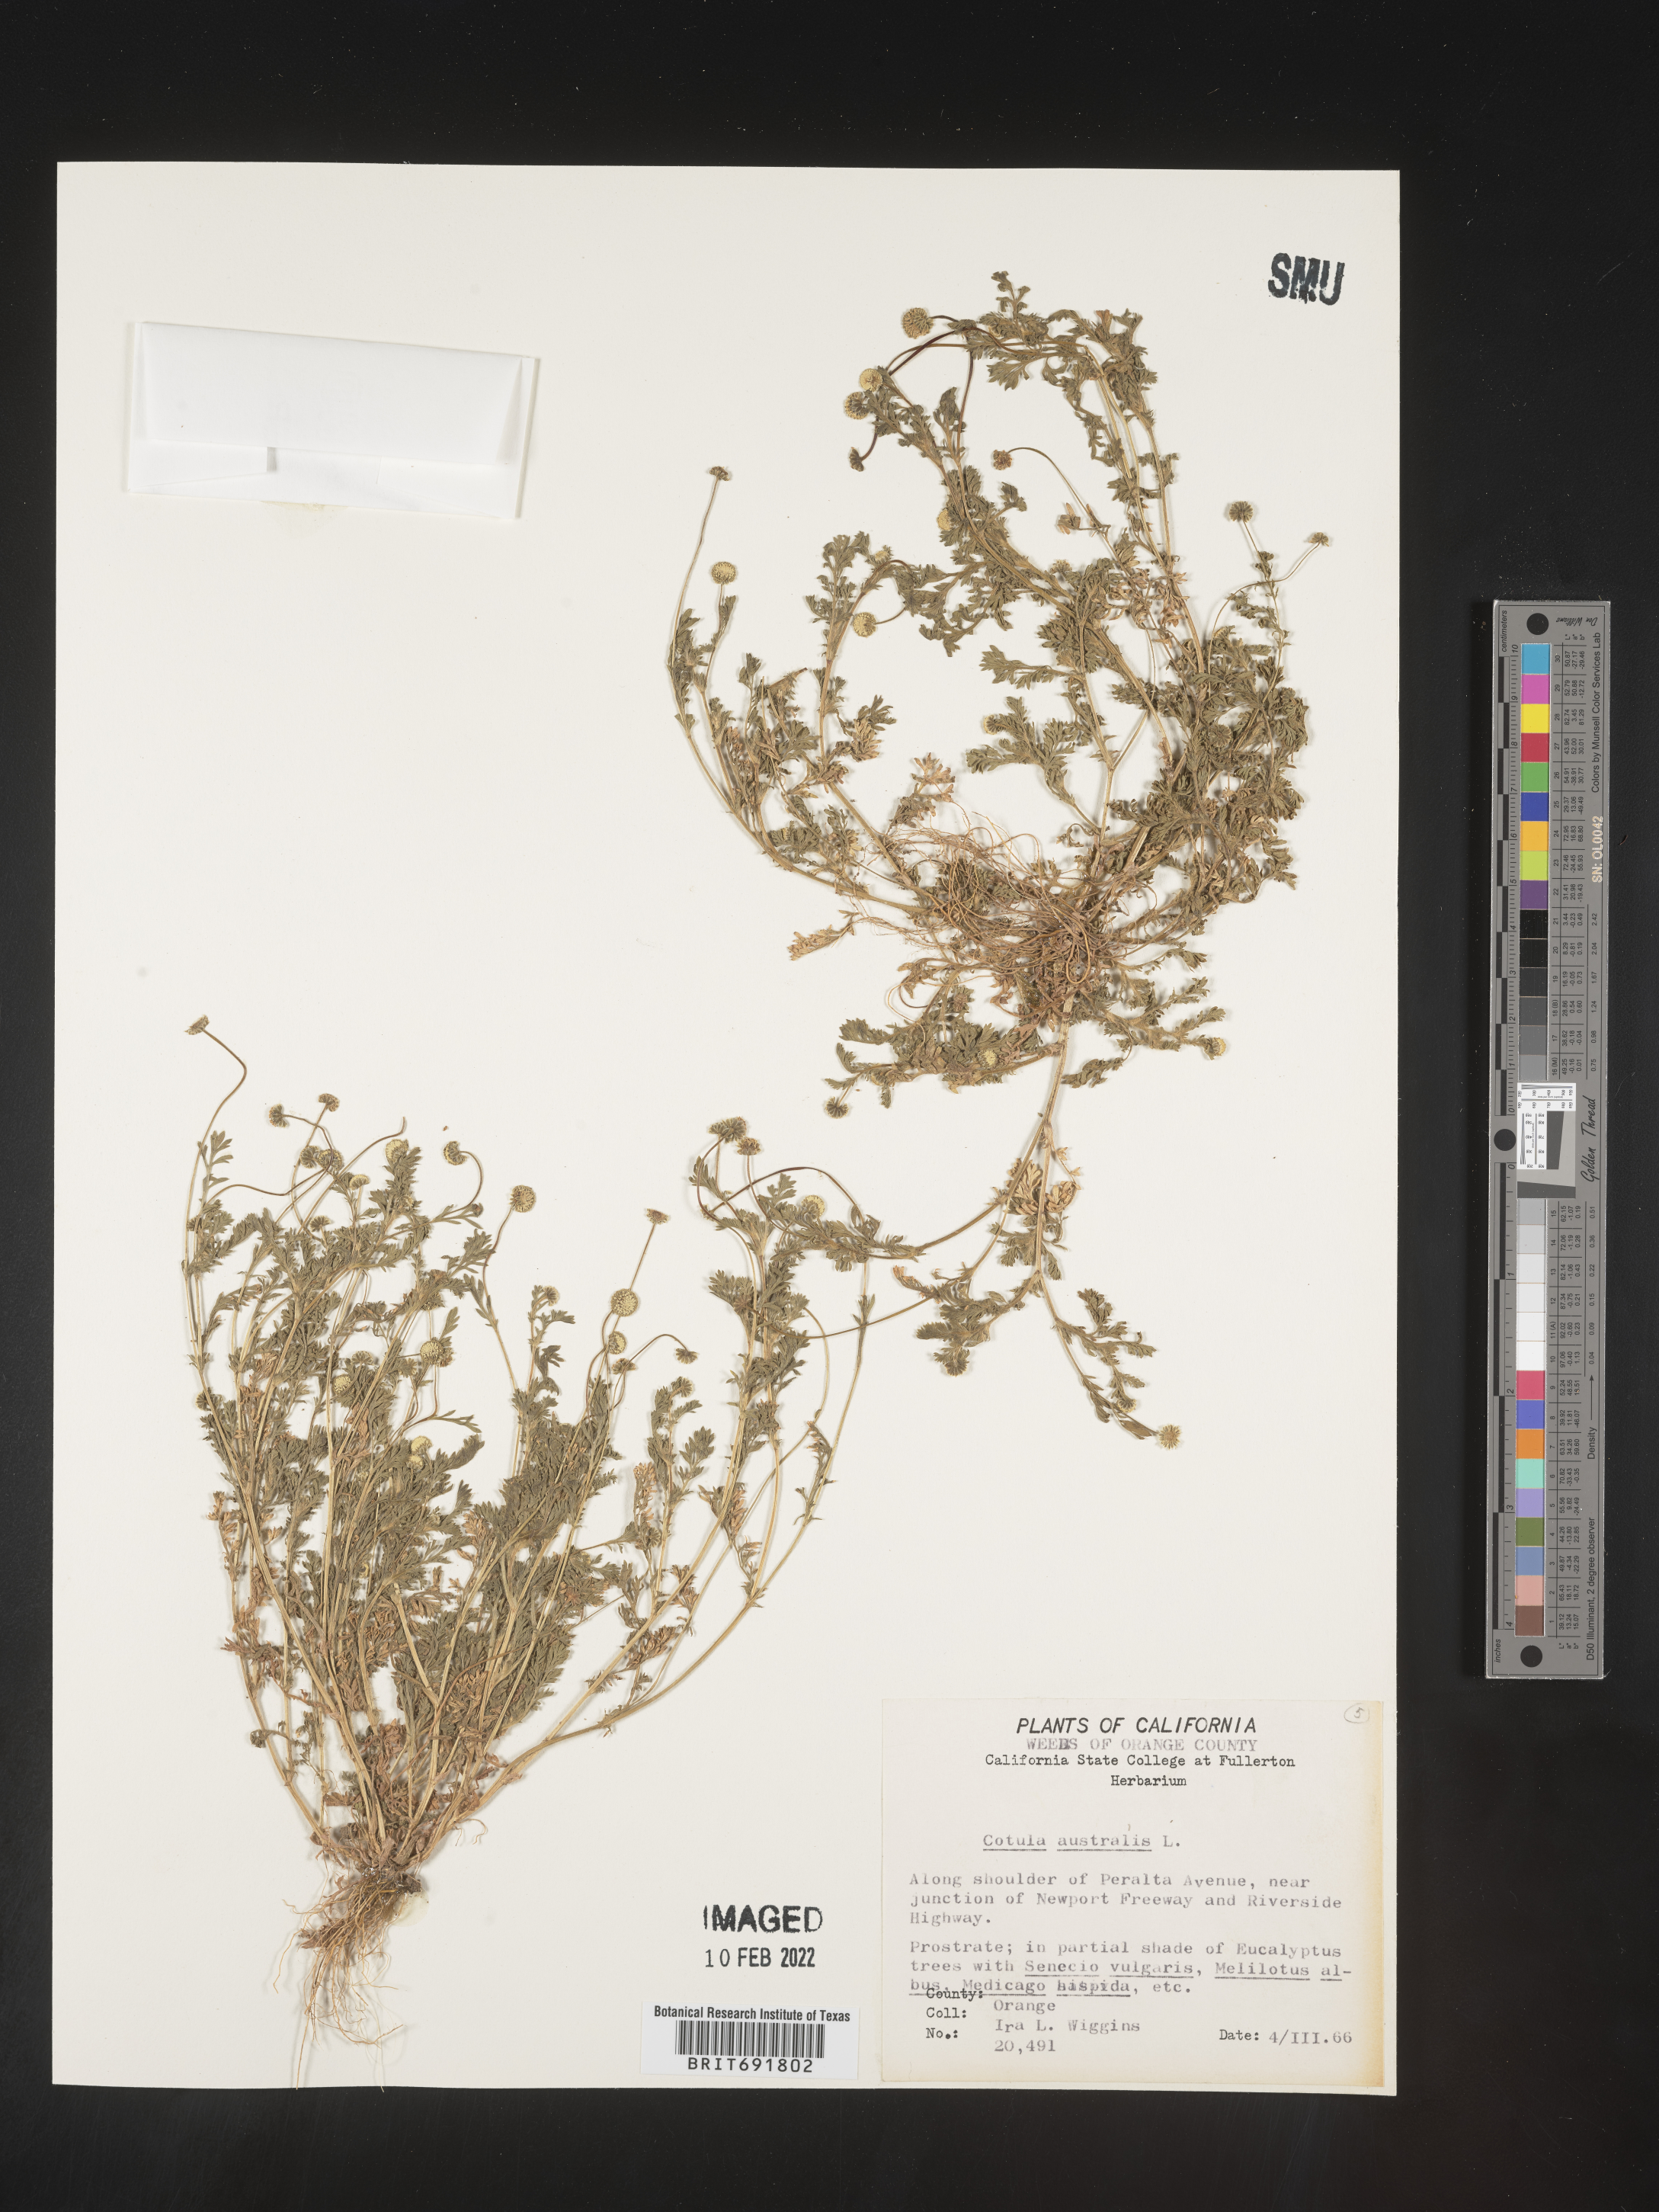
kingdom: Plantae
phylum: Tracheophyta
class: Magnoliopsida
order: Asterales
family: Asteraceae
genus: Cotula
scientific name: Cotula
